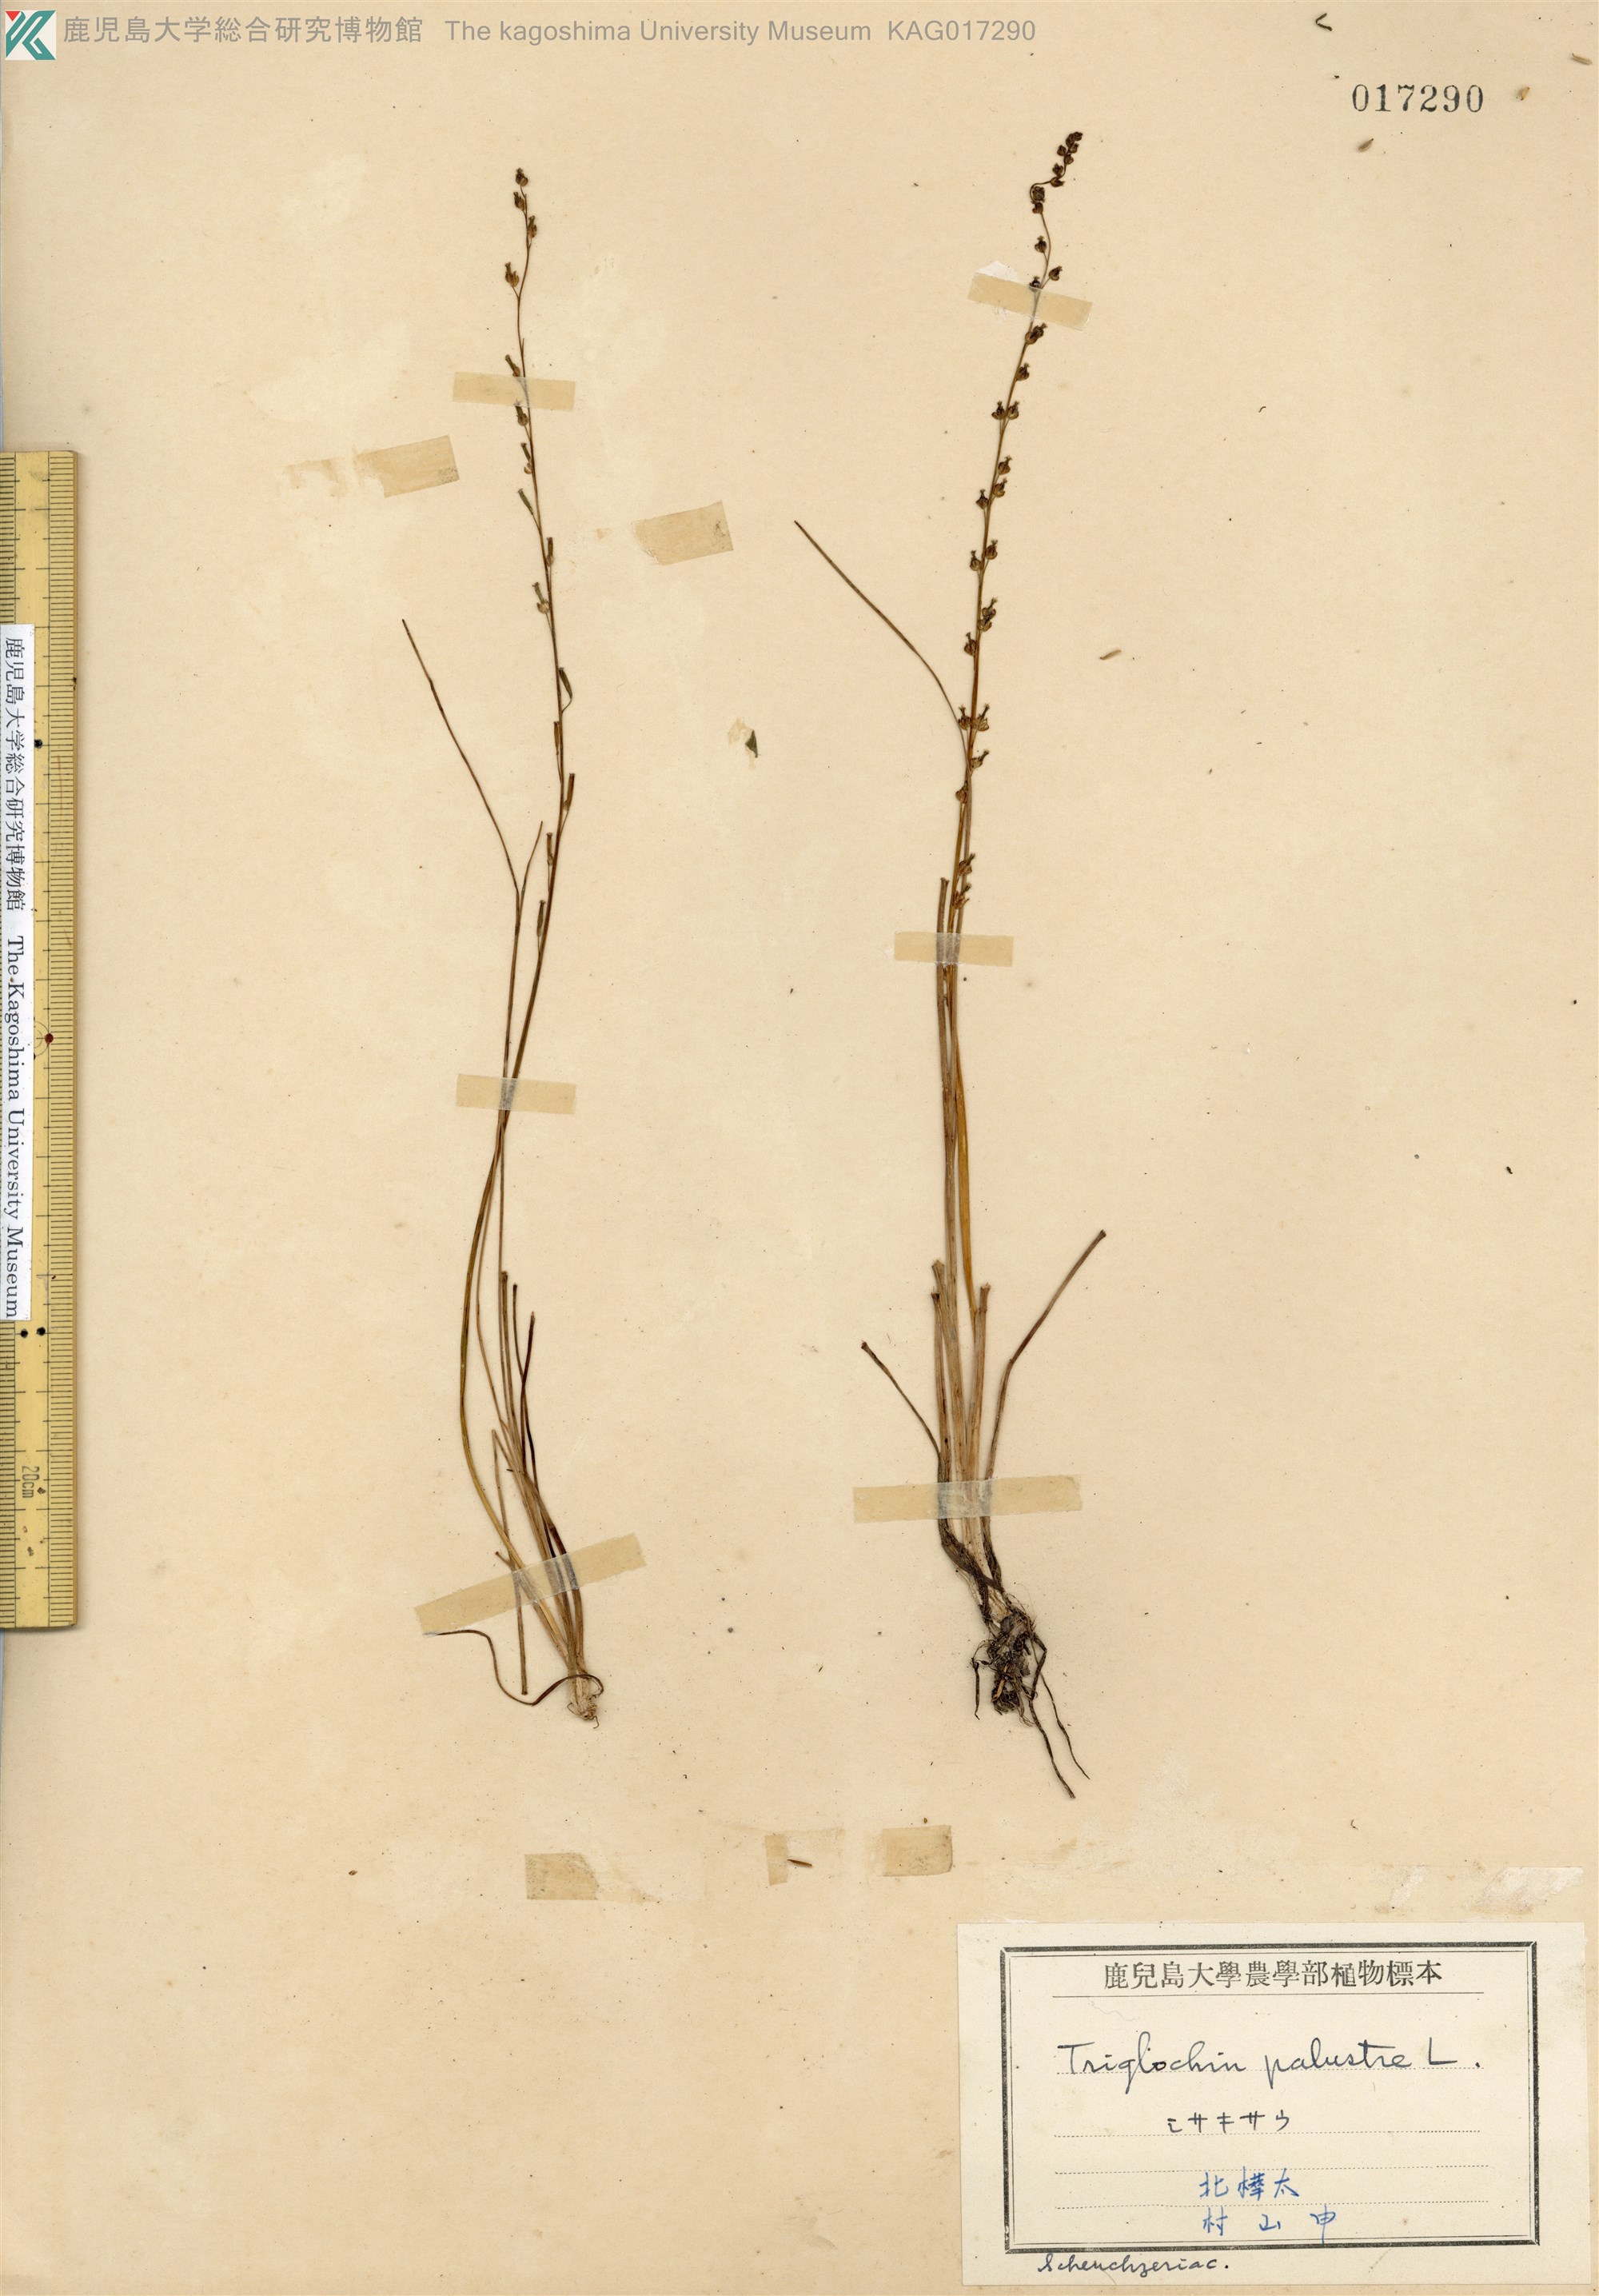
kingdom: Plantae
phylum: Tracheophyta
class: Liliopsida
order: Alismatales
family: Juncaginaceae
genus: Triglochin
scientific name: Triglochin palustris
